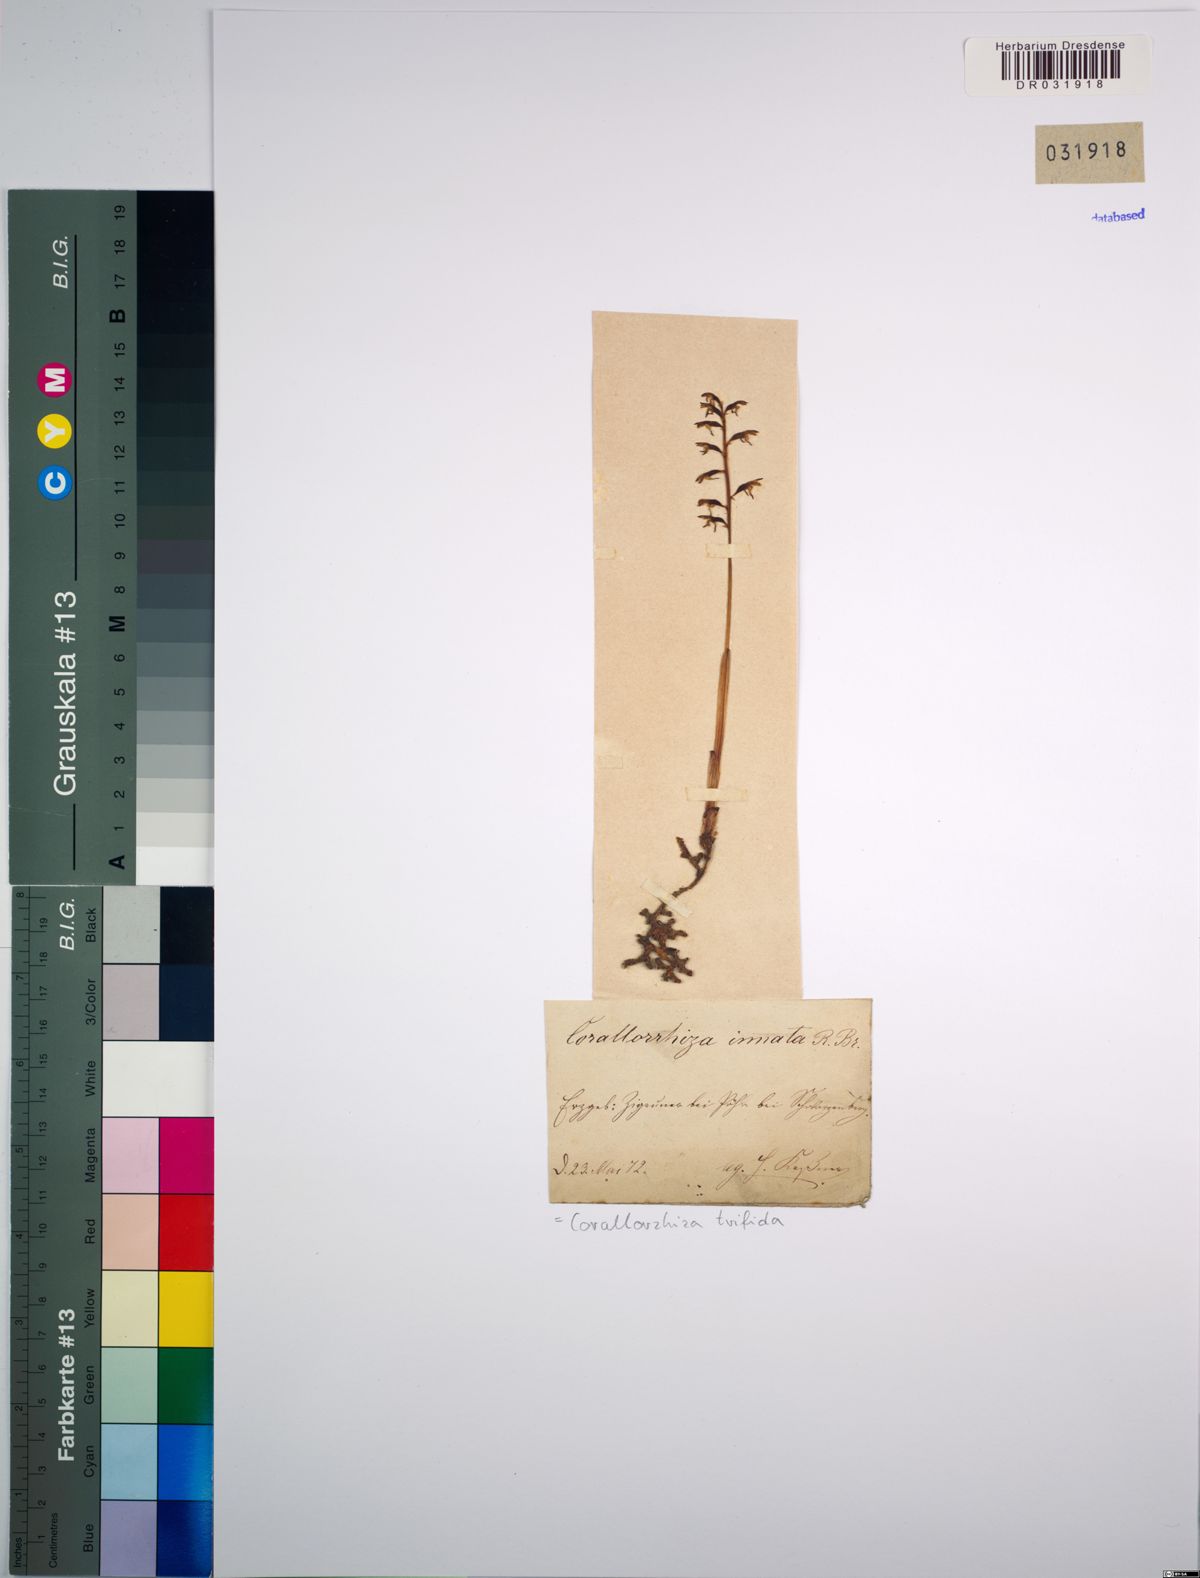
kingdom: Plantae
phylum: Tracheophyta
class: Liliopsida
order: Asparagales
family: Orchidaceae
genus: Corallorhiza
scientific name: Corallorhiza trifida
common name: Yellow coralroot
